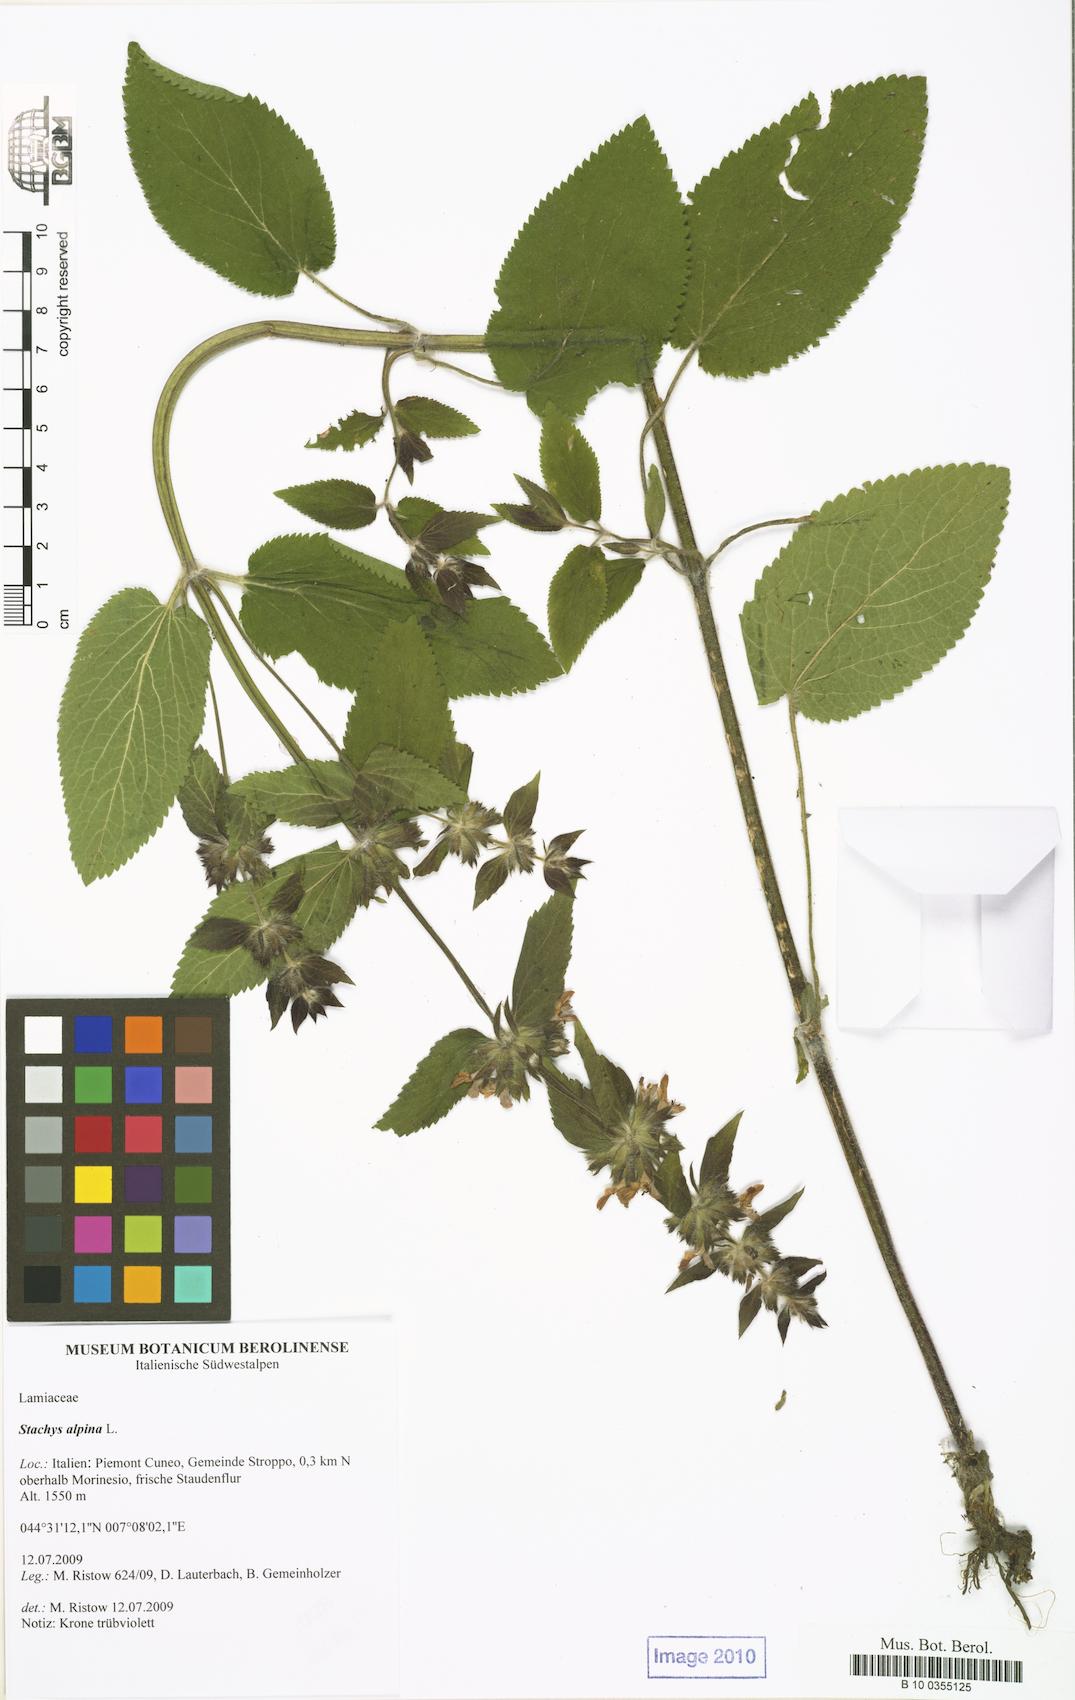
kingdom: Plantae
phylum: Tracheophyta
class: Magnoliopsida
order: Lamiales
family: Lamiaceae
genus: Stachys
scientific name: Stachys alpina
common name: Limestone woundwort
